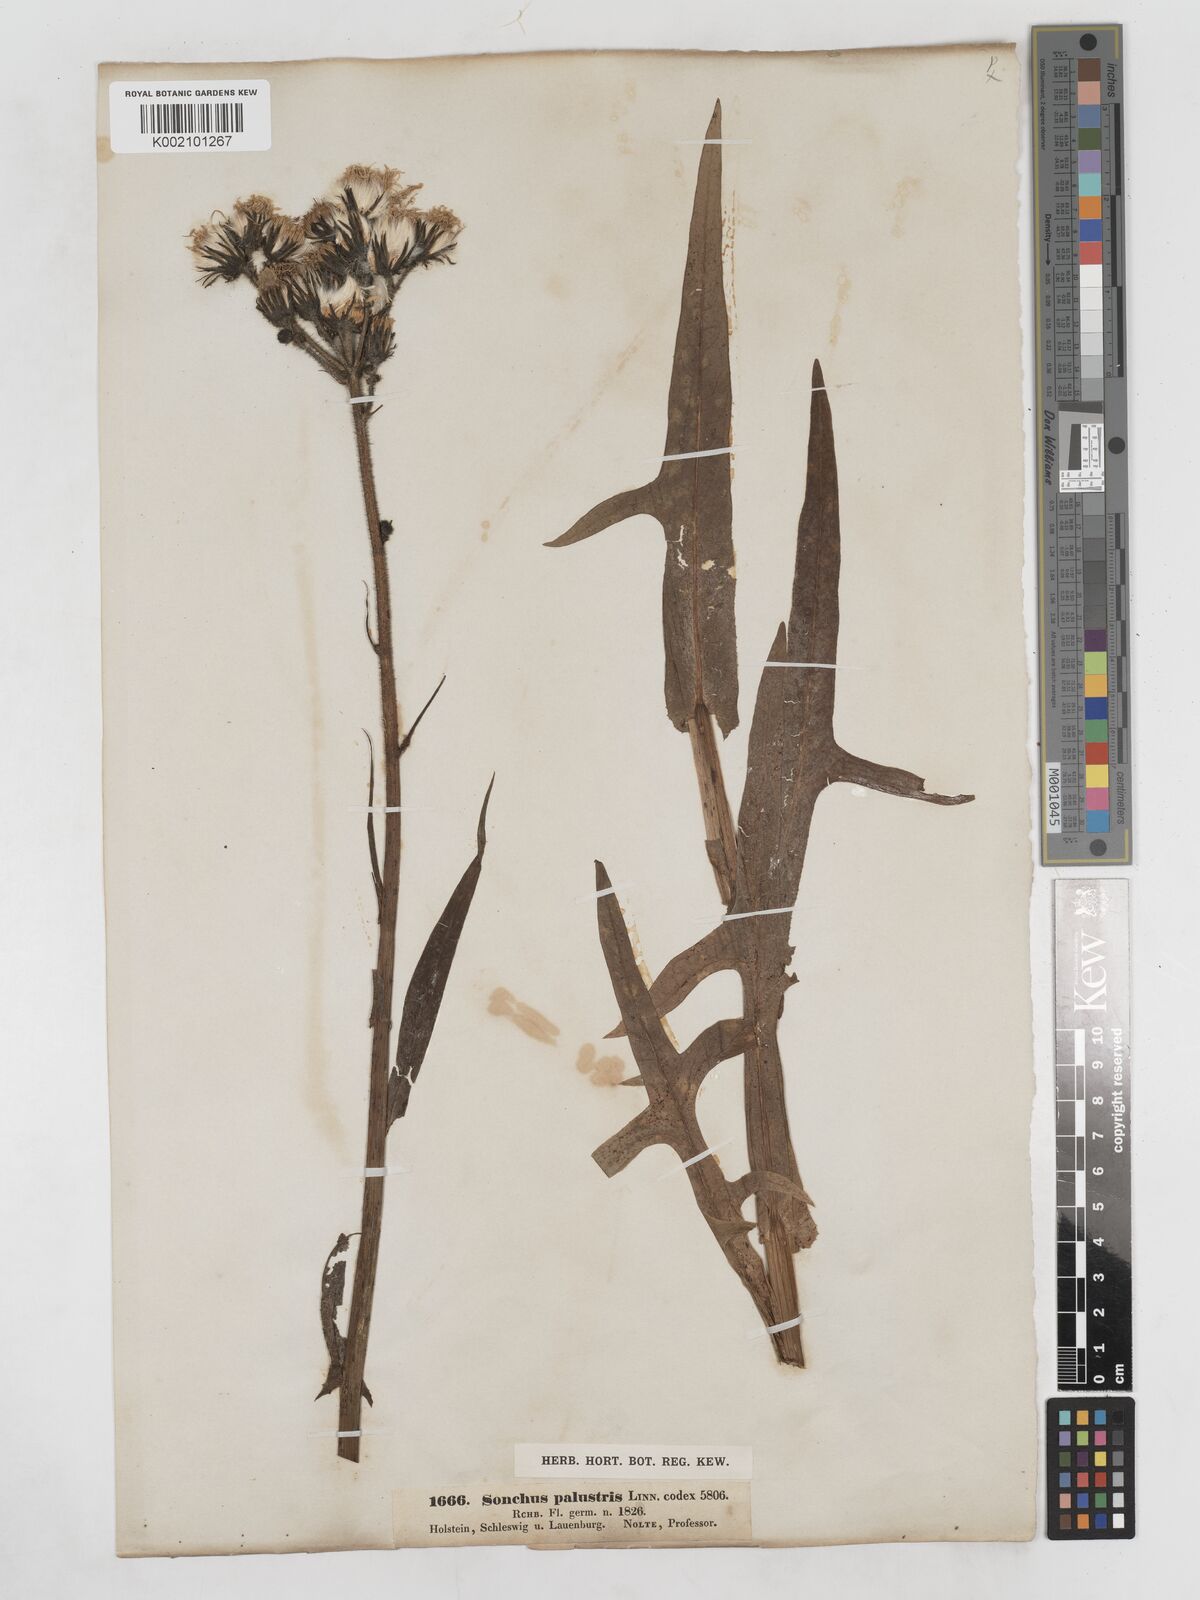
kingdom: Plantae
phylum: Tracheophyta
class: Magnoliopsida
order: Asterales
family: Asteraceae
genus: Sonchus
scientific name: Sonchus palustris
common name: Marsh sow-thistle
